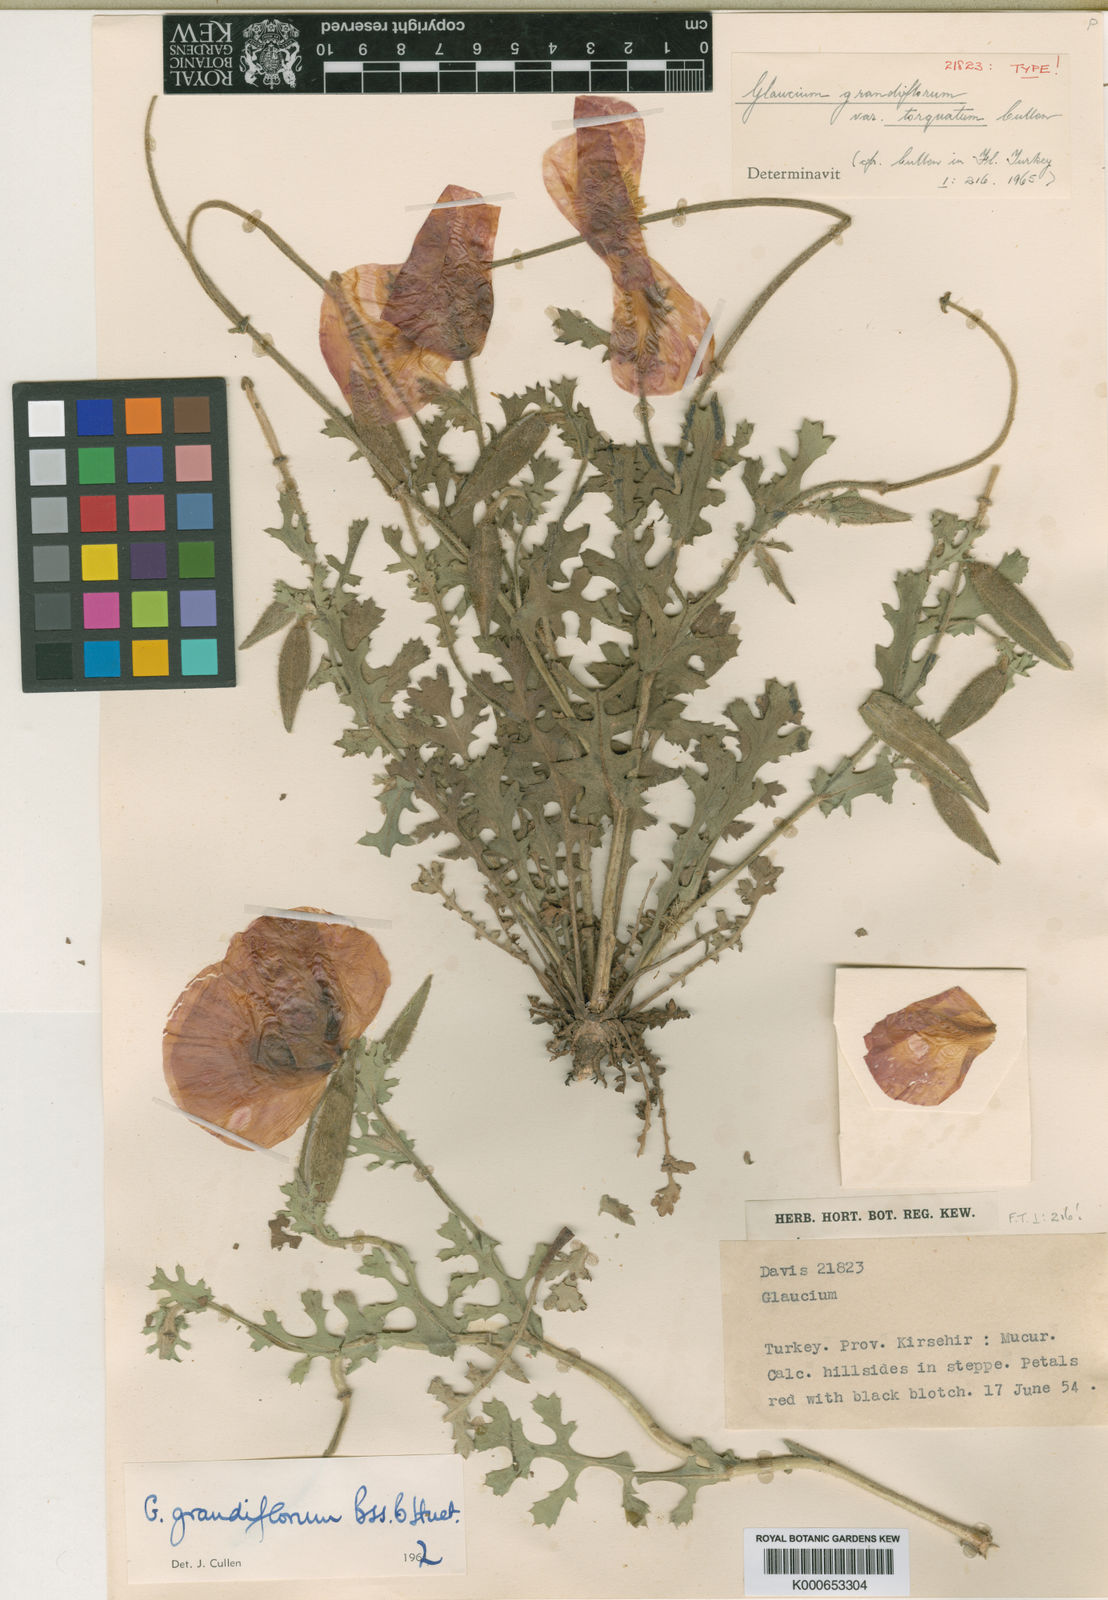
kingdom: Plantae
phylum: Tracheophyta
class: Magnoliopsida
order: Ranunculales
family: Papaveraceae
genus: Glaucium
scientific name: Glaucium grandiflorum
